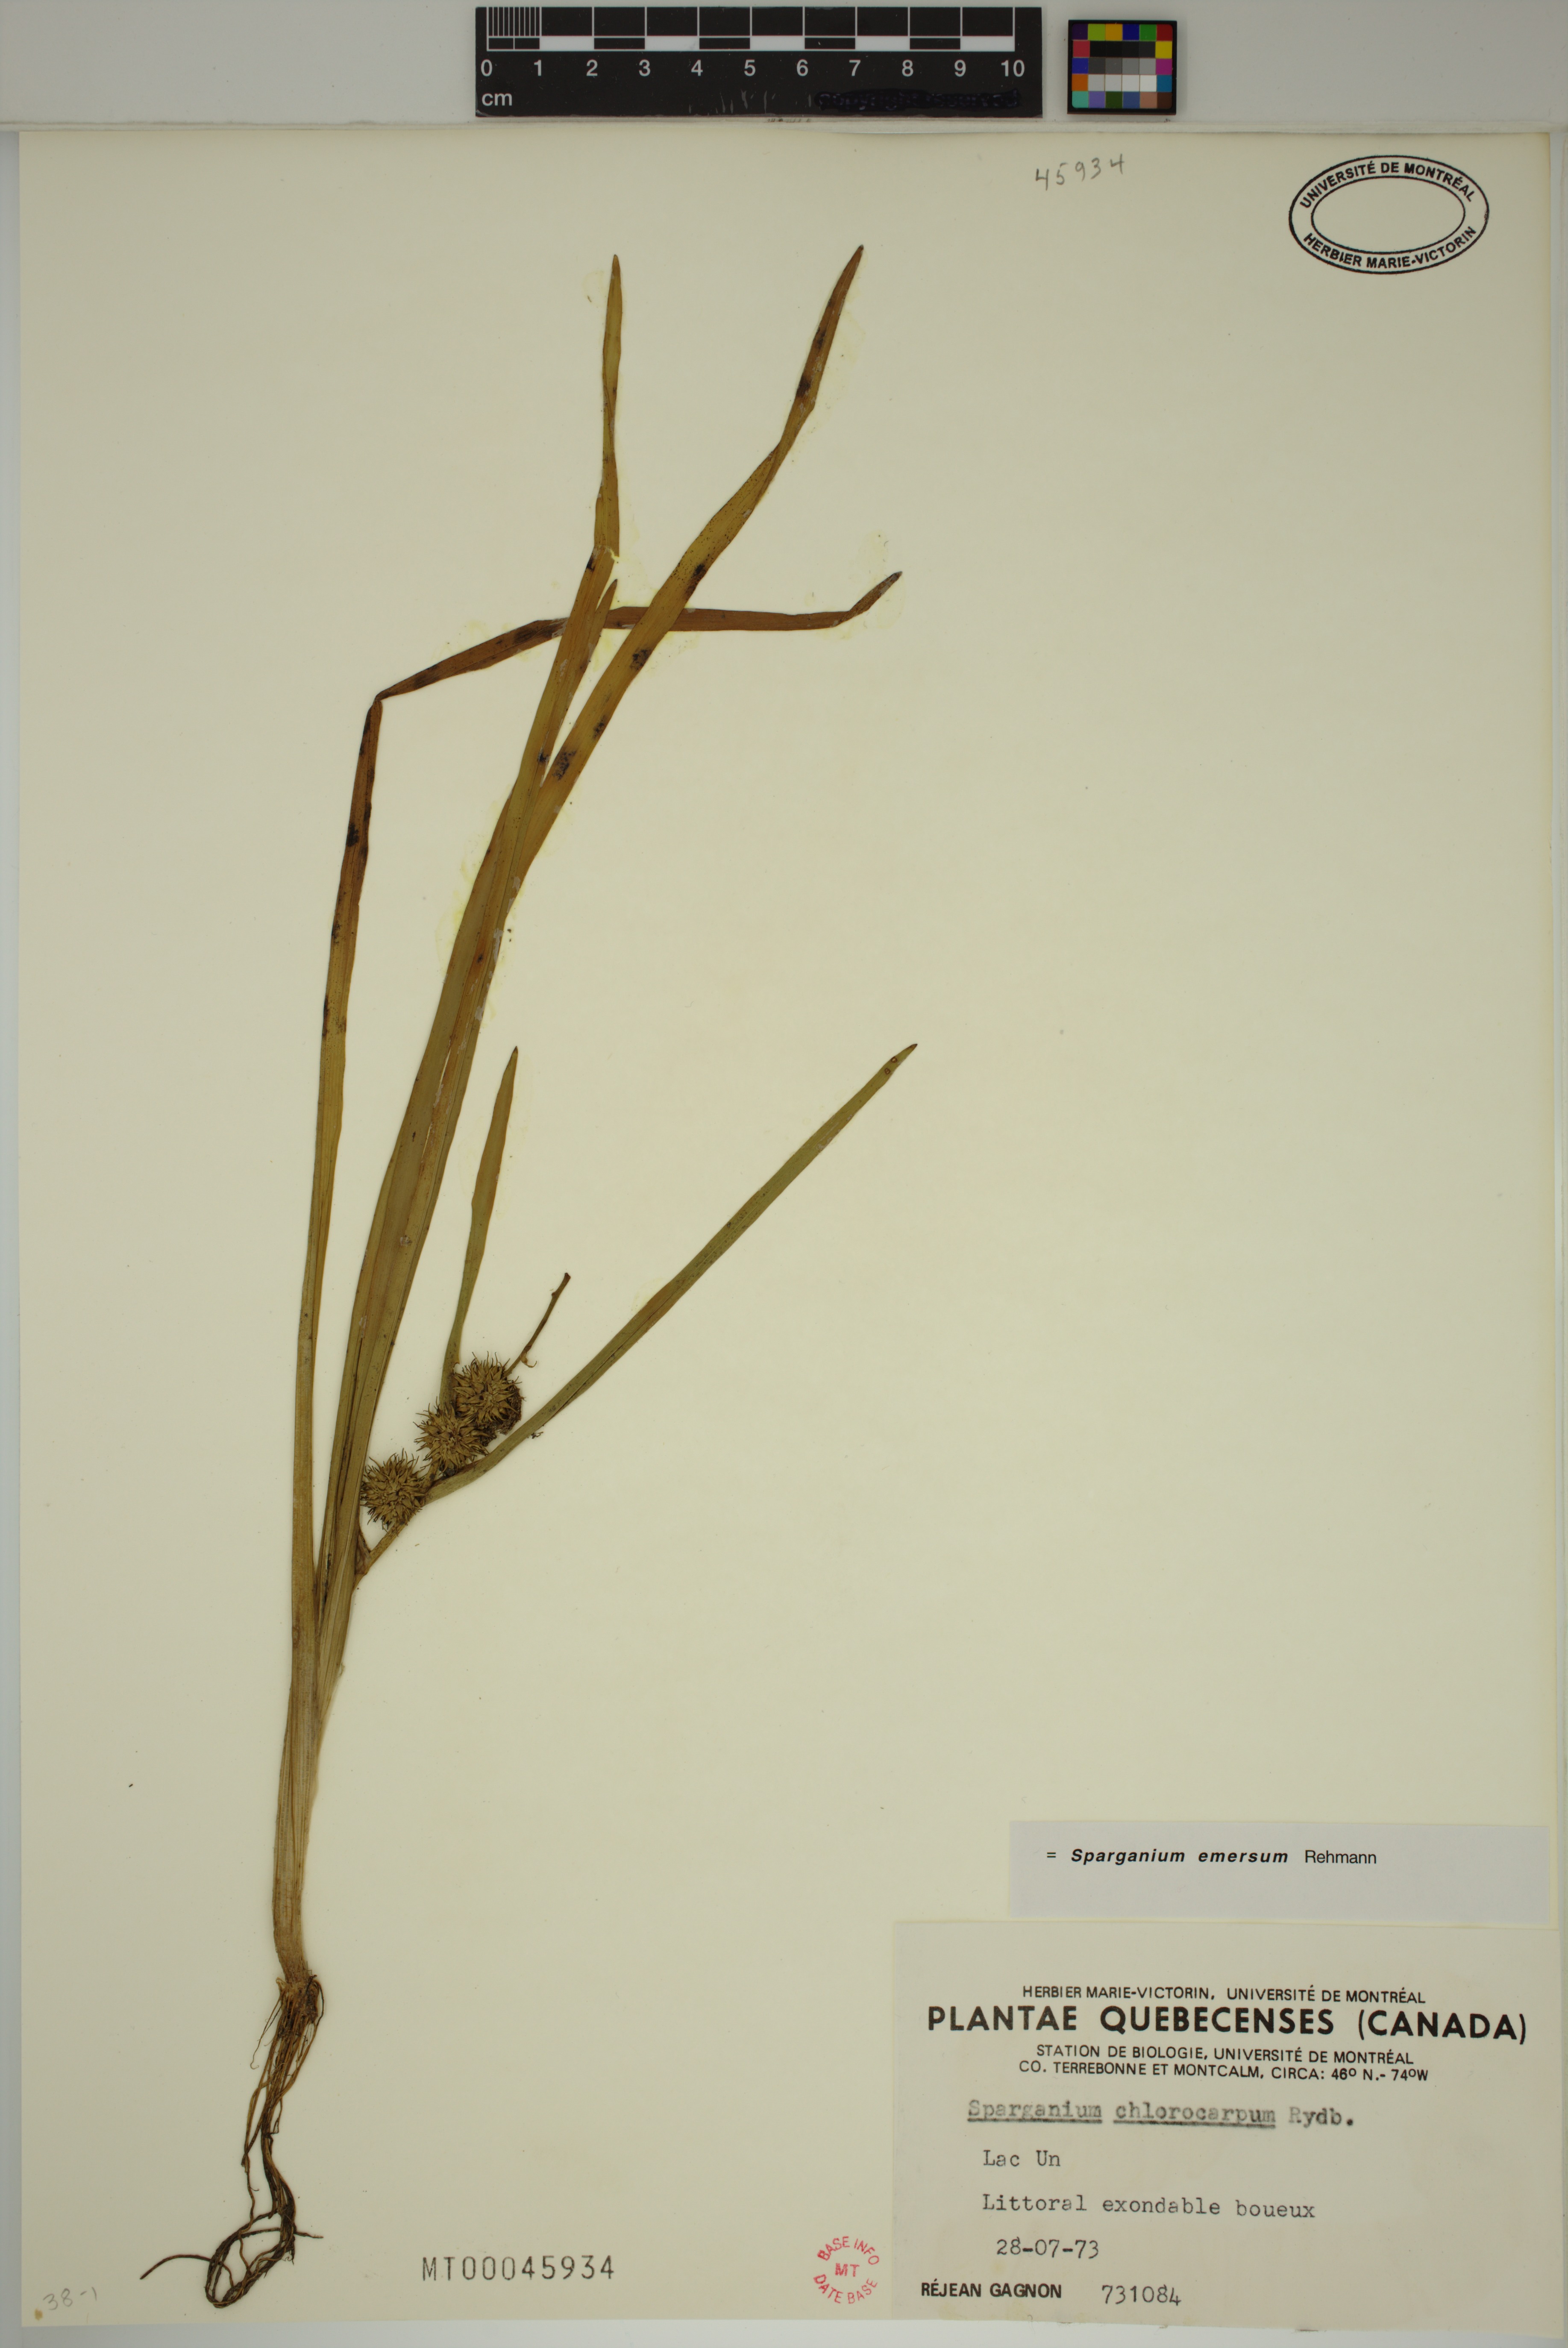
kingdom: Plantae
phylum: Tracheophyta
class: Liliopsida
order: Poales
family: Typhaceae
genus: Sparganium
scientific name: Sparganium emersum
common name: Unbranched bur-reed
